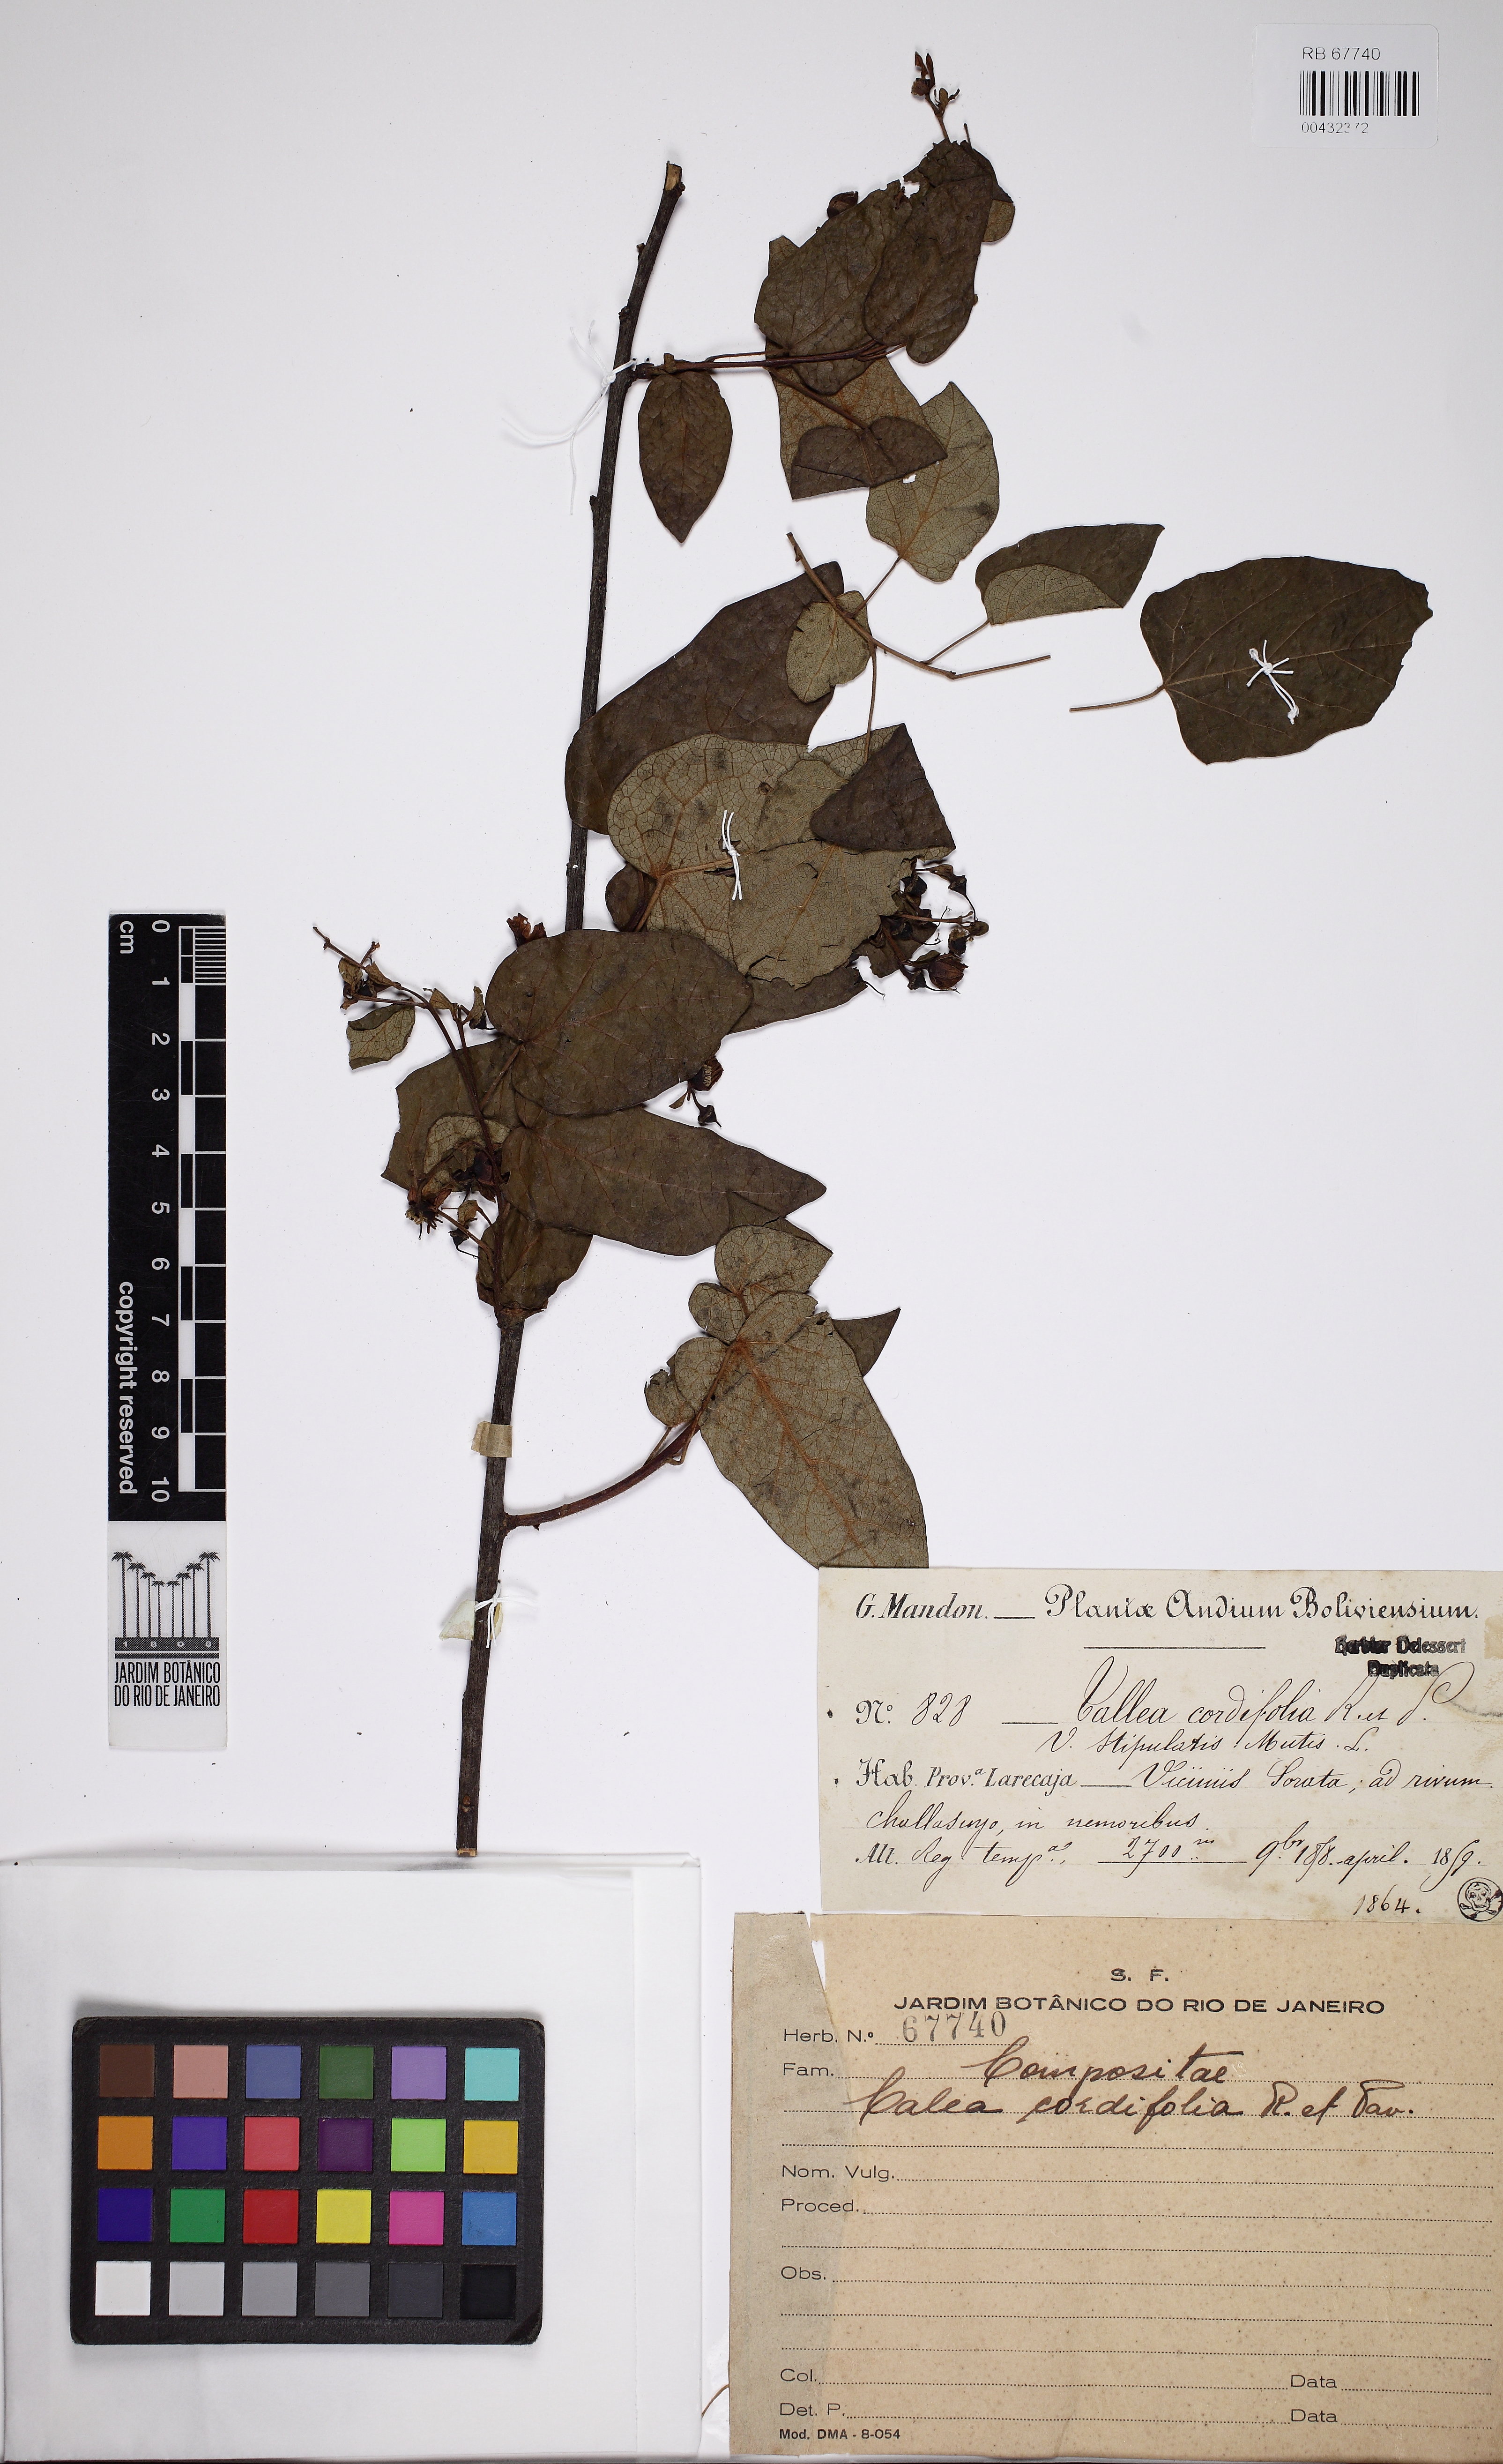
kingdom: Plantae
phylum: Tracheophyta
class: Magnoliopsida
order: Asterales
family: Asteraceae
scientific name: Asteraceae
